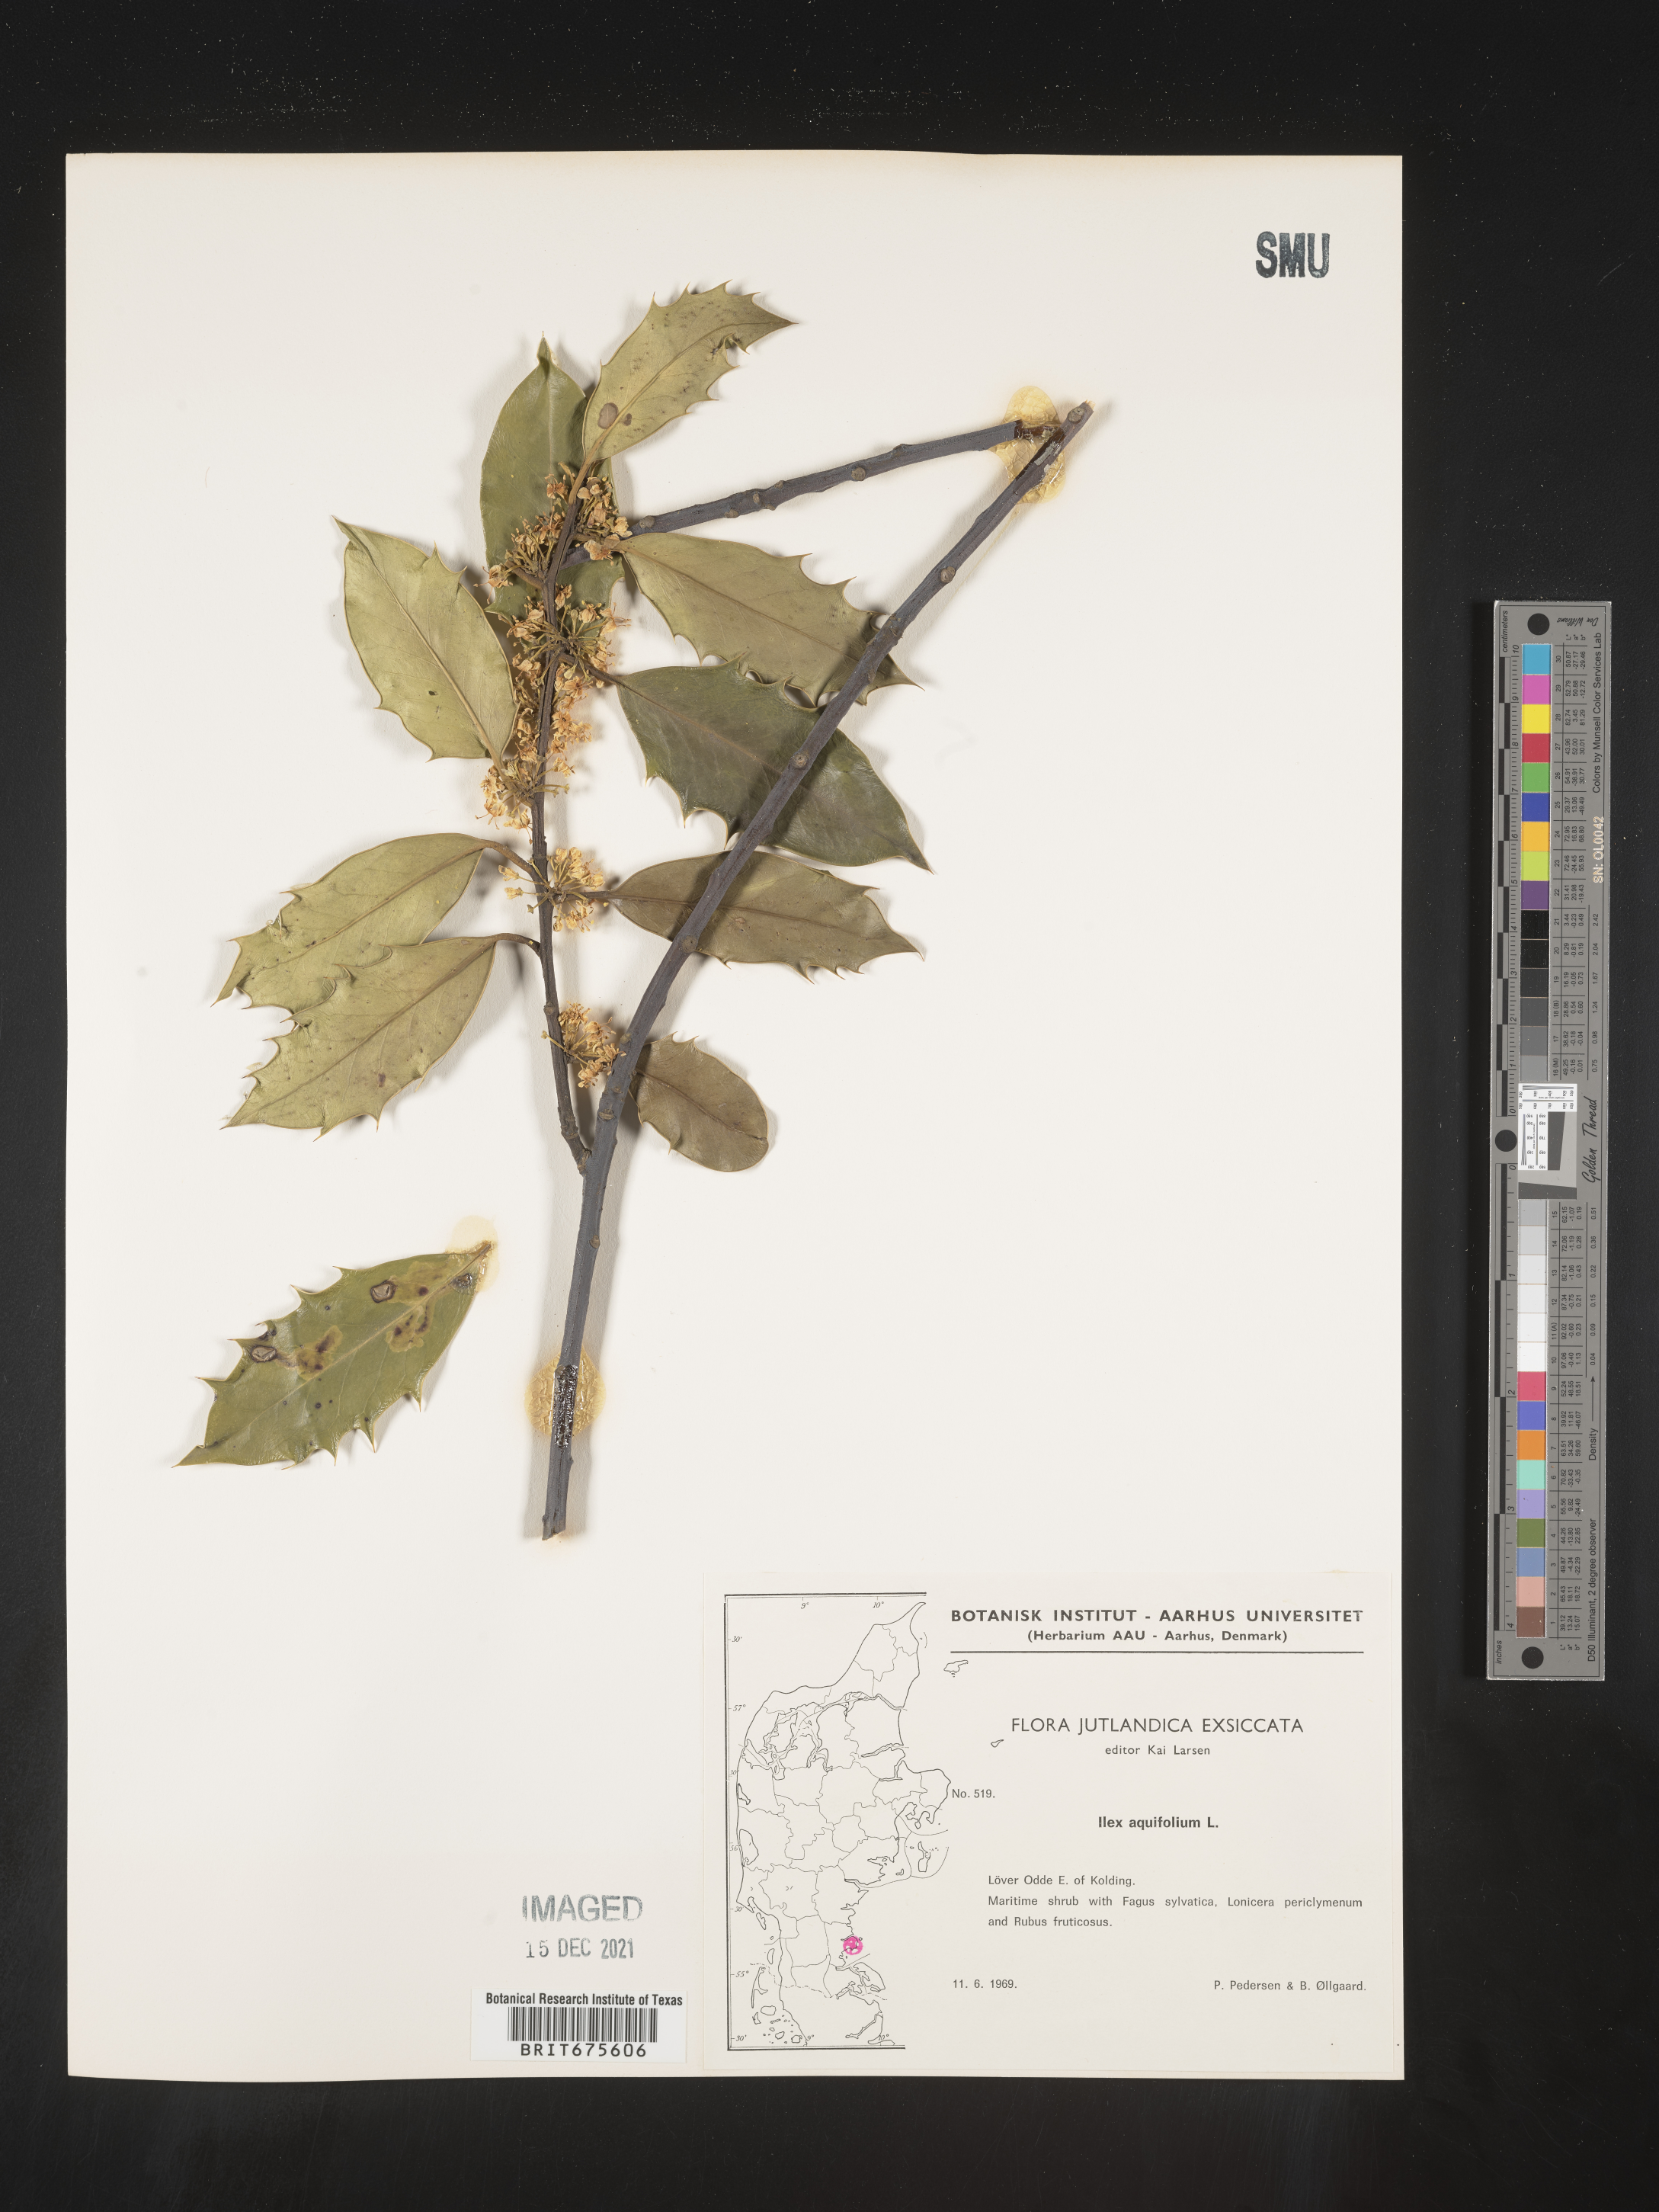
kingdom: Plantae
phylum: Tracheophyta
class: Magnoliopsida
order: Aquifoliales
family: Aquifoliaceae
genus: Ilex
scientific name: Ilex
